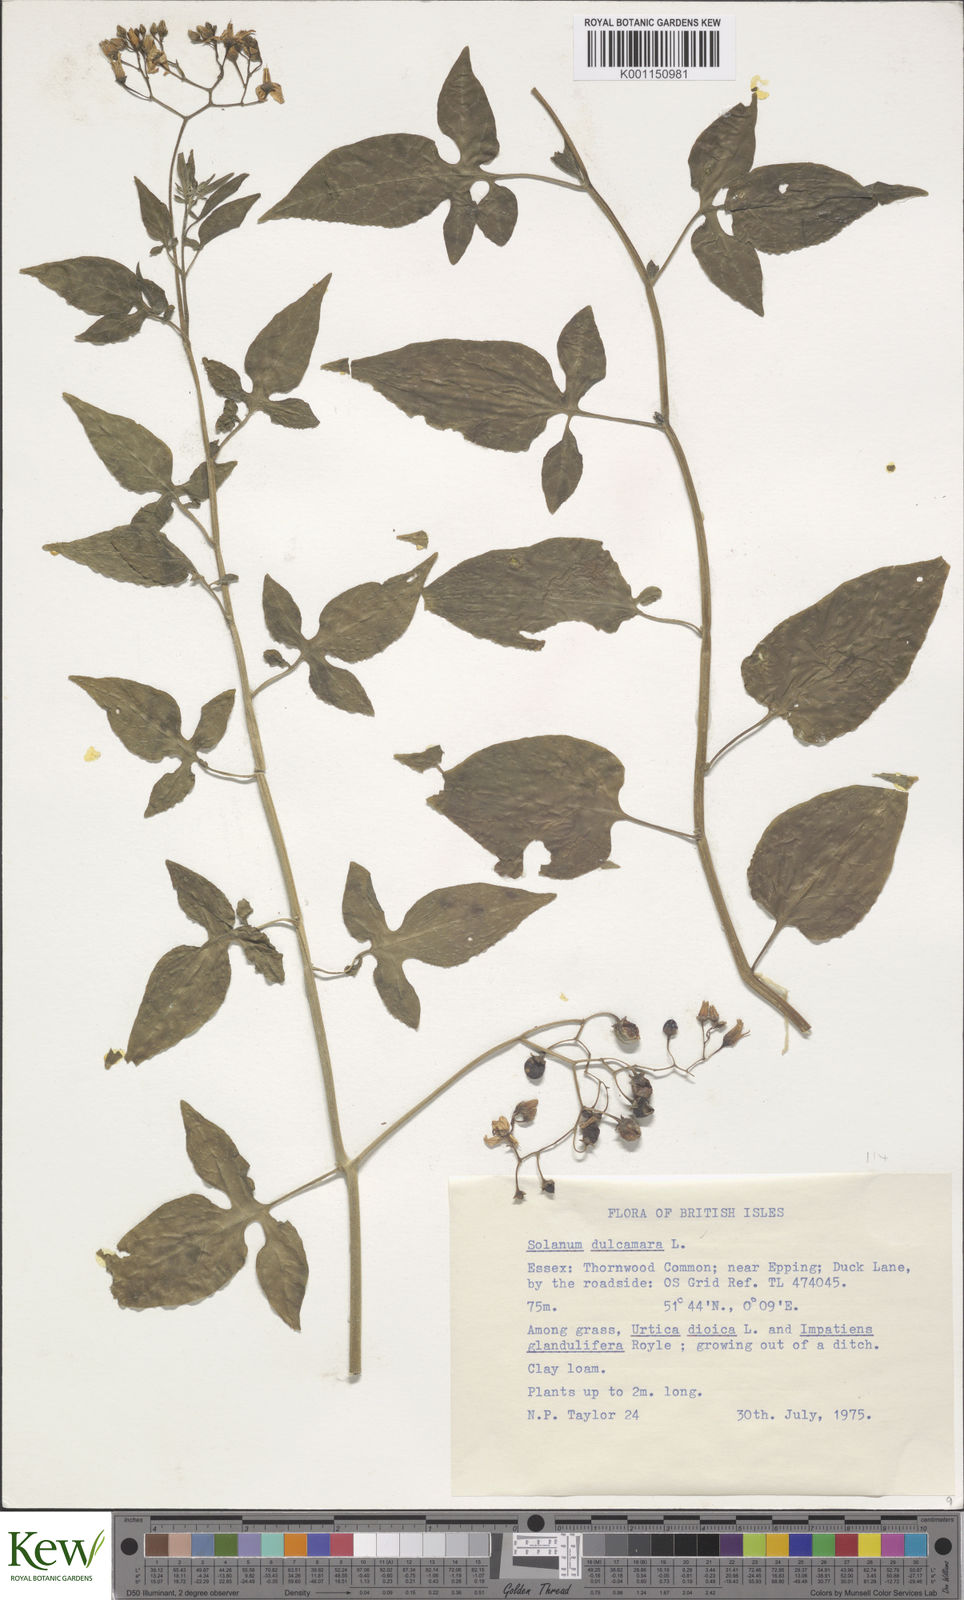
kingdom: Plantae
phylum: Tracheophyta
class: Magnoliopsida
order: Solanales
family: Solanaceae
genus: Solanum
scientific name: Solanum dulcamara
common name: Climbing nightshade
